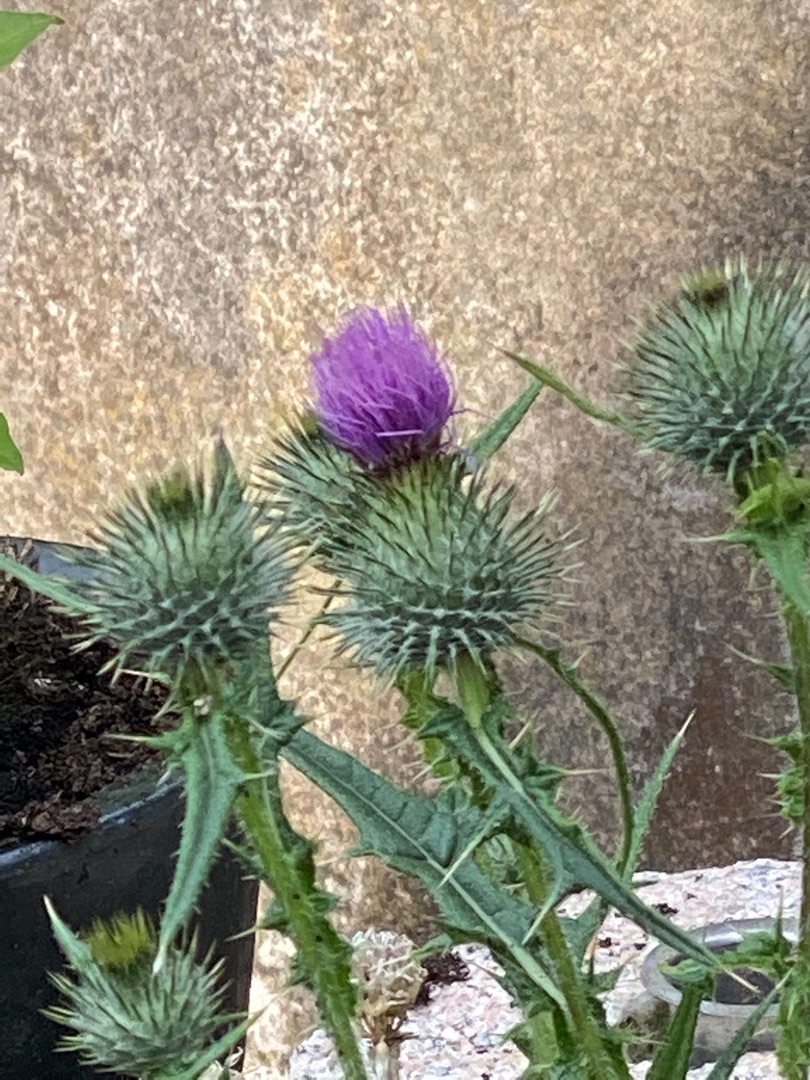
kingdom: Plantae
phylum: Tracheophyta
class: Magnoliopsida
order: Asterales
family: Asteraceae
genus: Cirsium
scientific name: Cirsium vulgare
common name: Horse-tidsel
